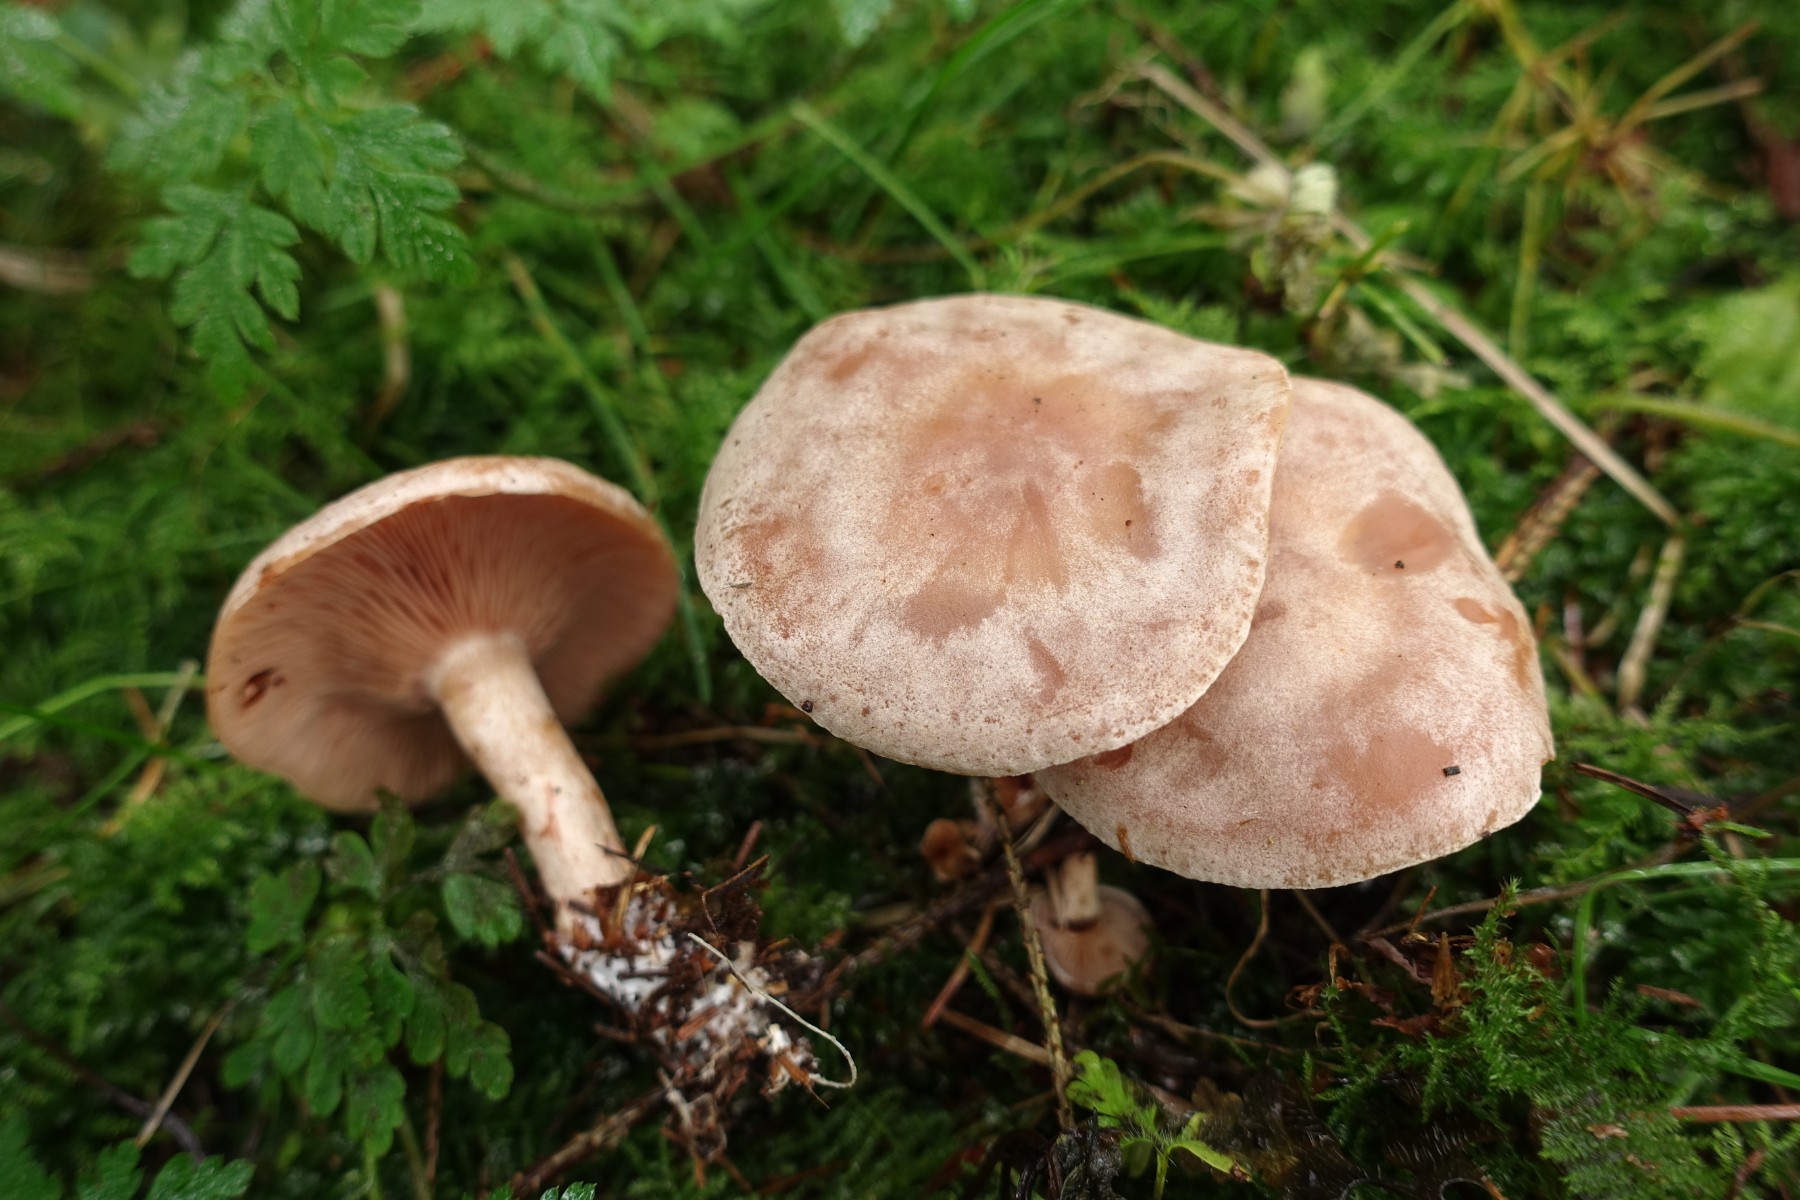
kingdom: Fungi
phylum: Basidiomycota
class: Agaricomycetes
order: Agaricales
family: Tricholomataceae
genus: Lepista
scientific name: Lepista
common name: hekseringshat
